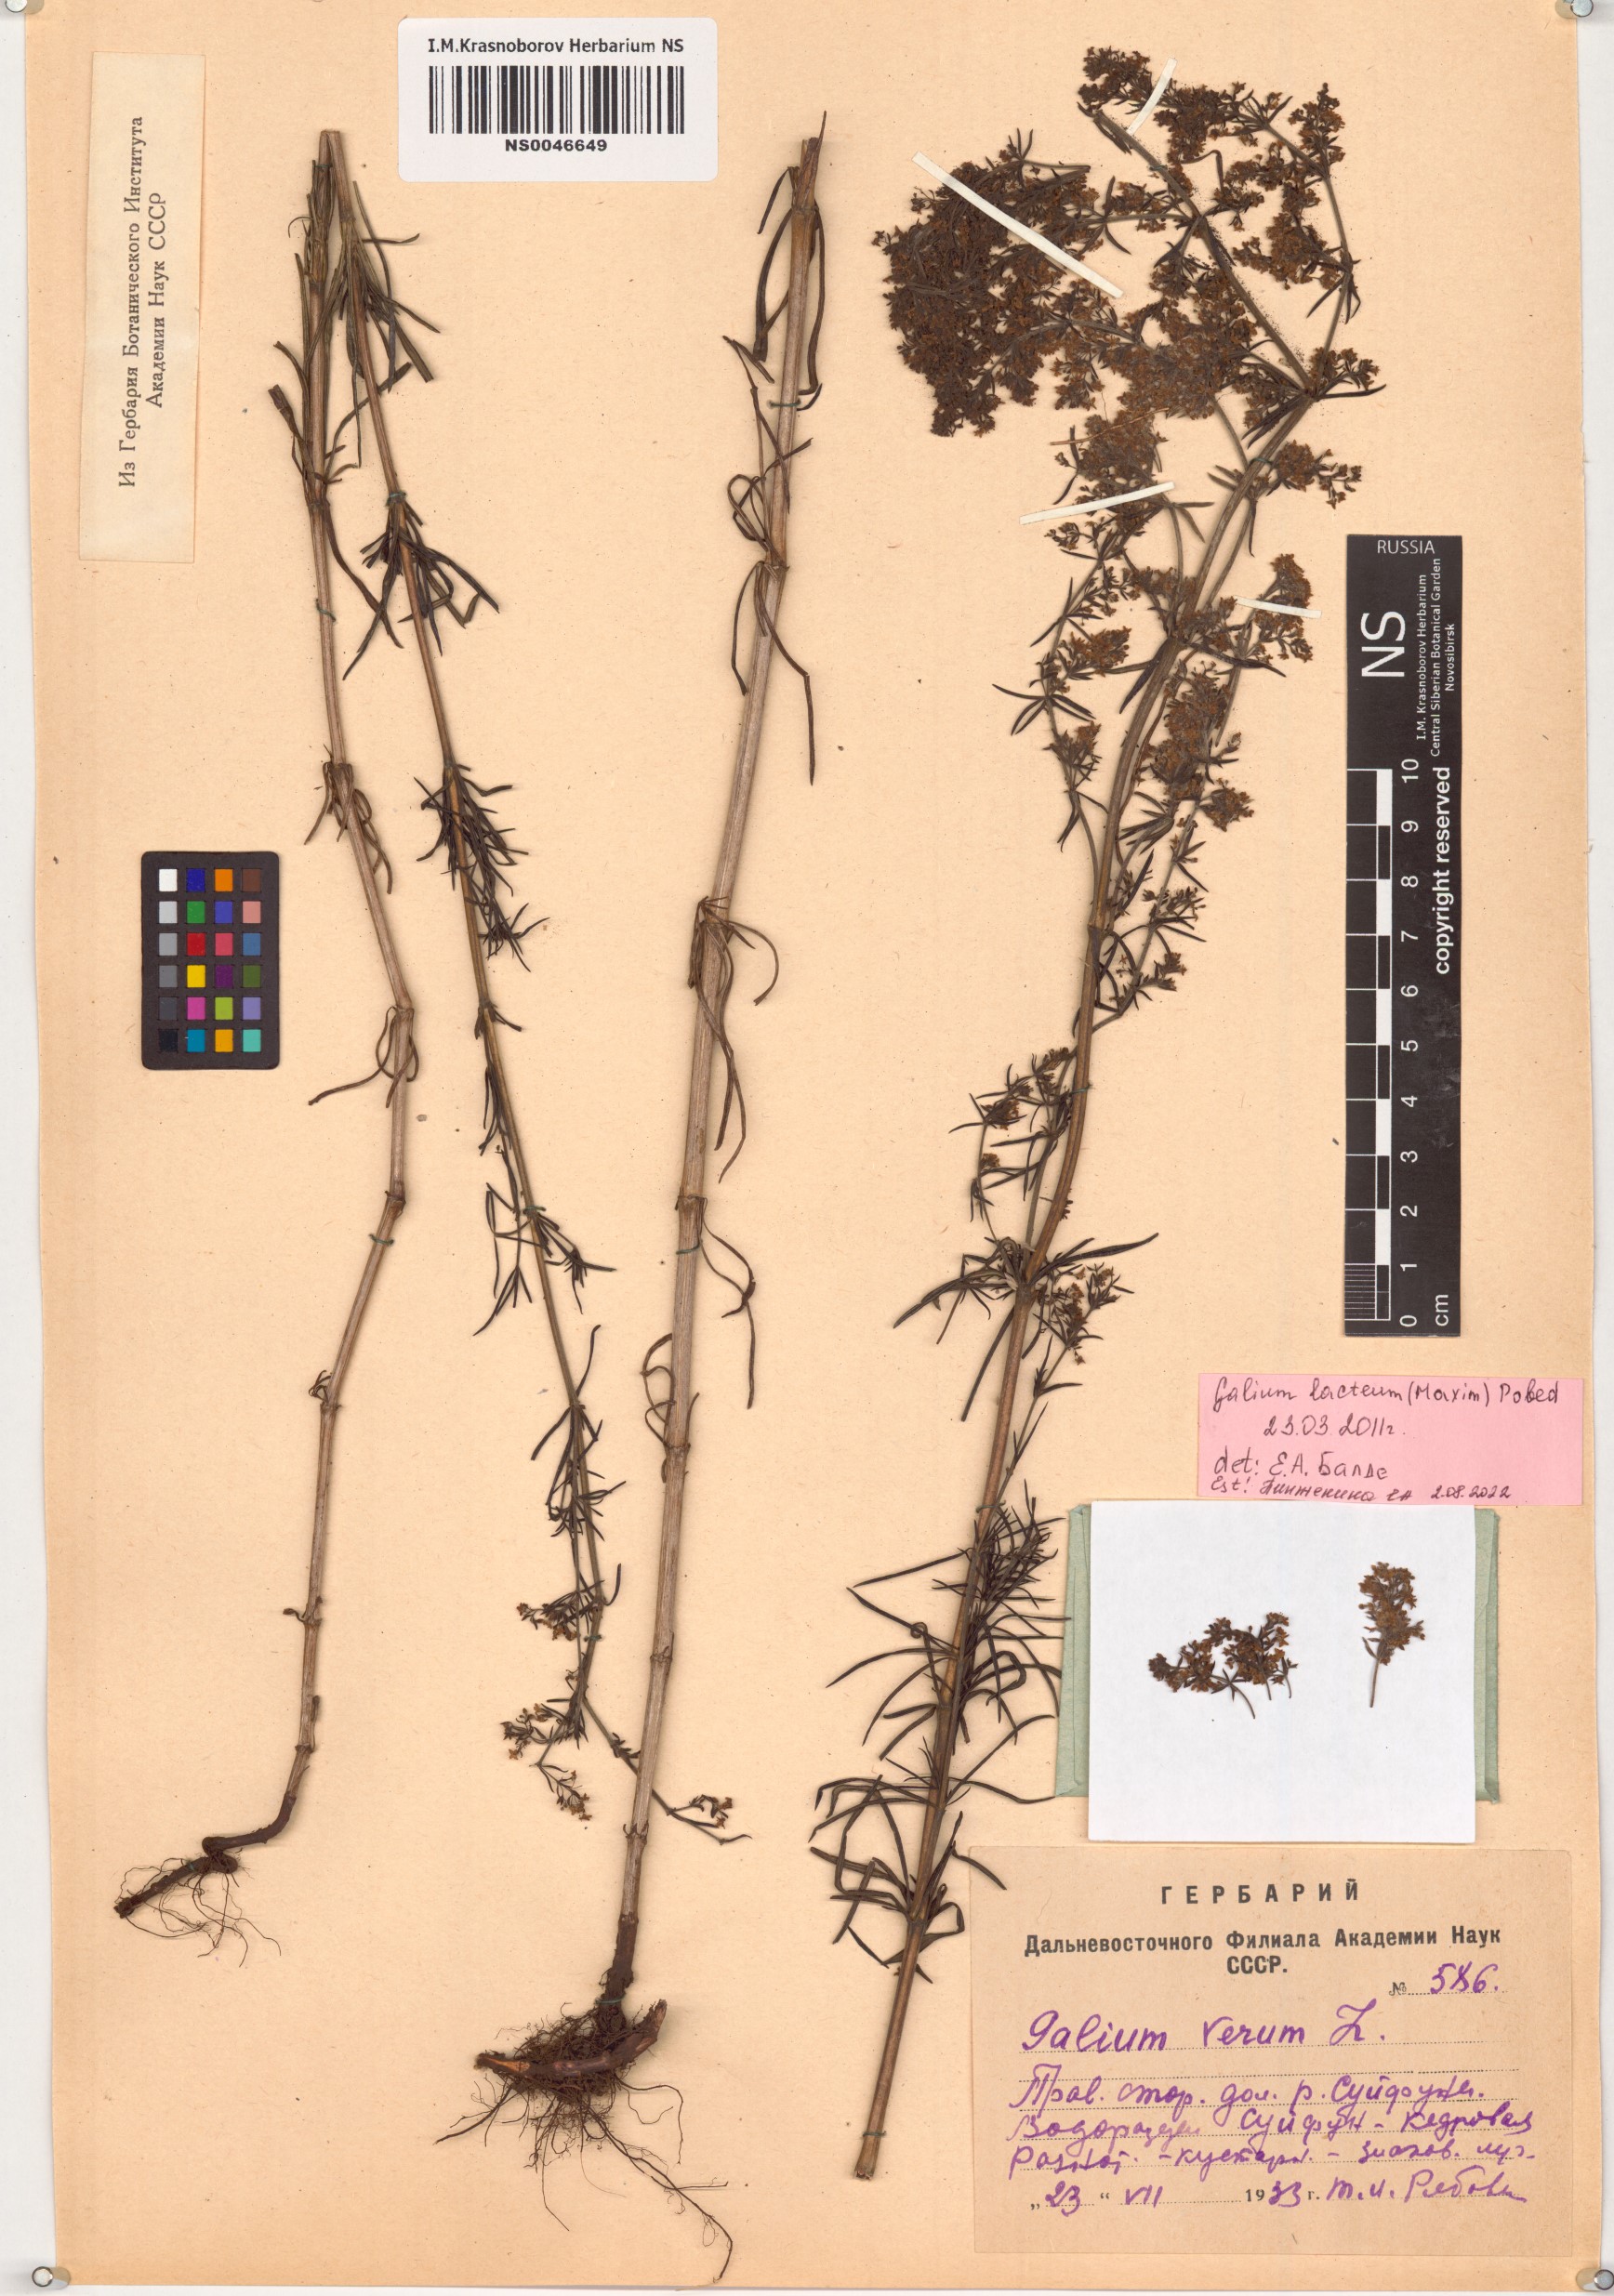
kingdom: Plantae
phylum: Tracheophyta
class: Magnoliopsida
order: Gentianales
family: Rubiaceae
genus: Galium
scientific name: Galium verum
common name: Lady's bedstraw
